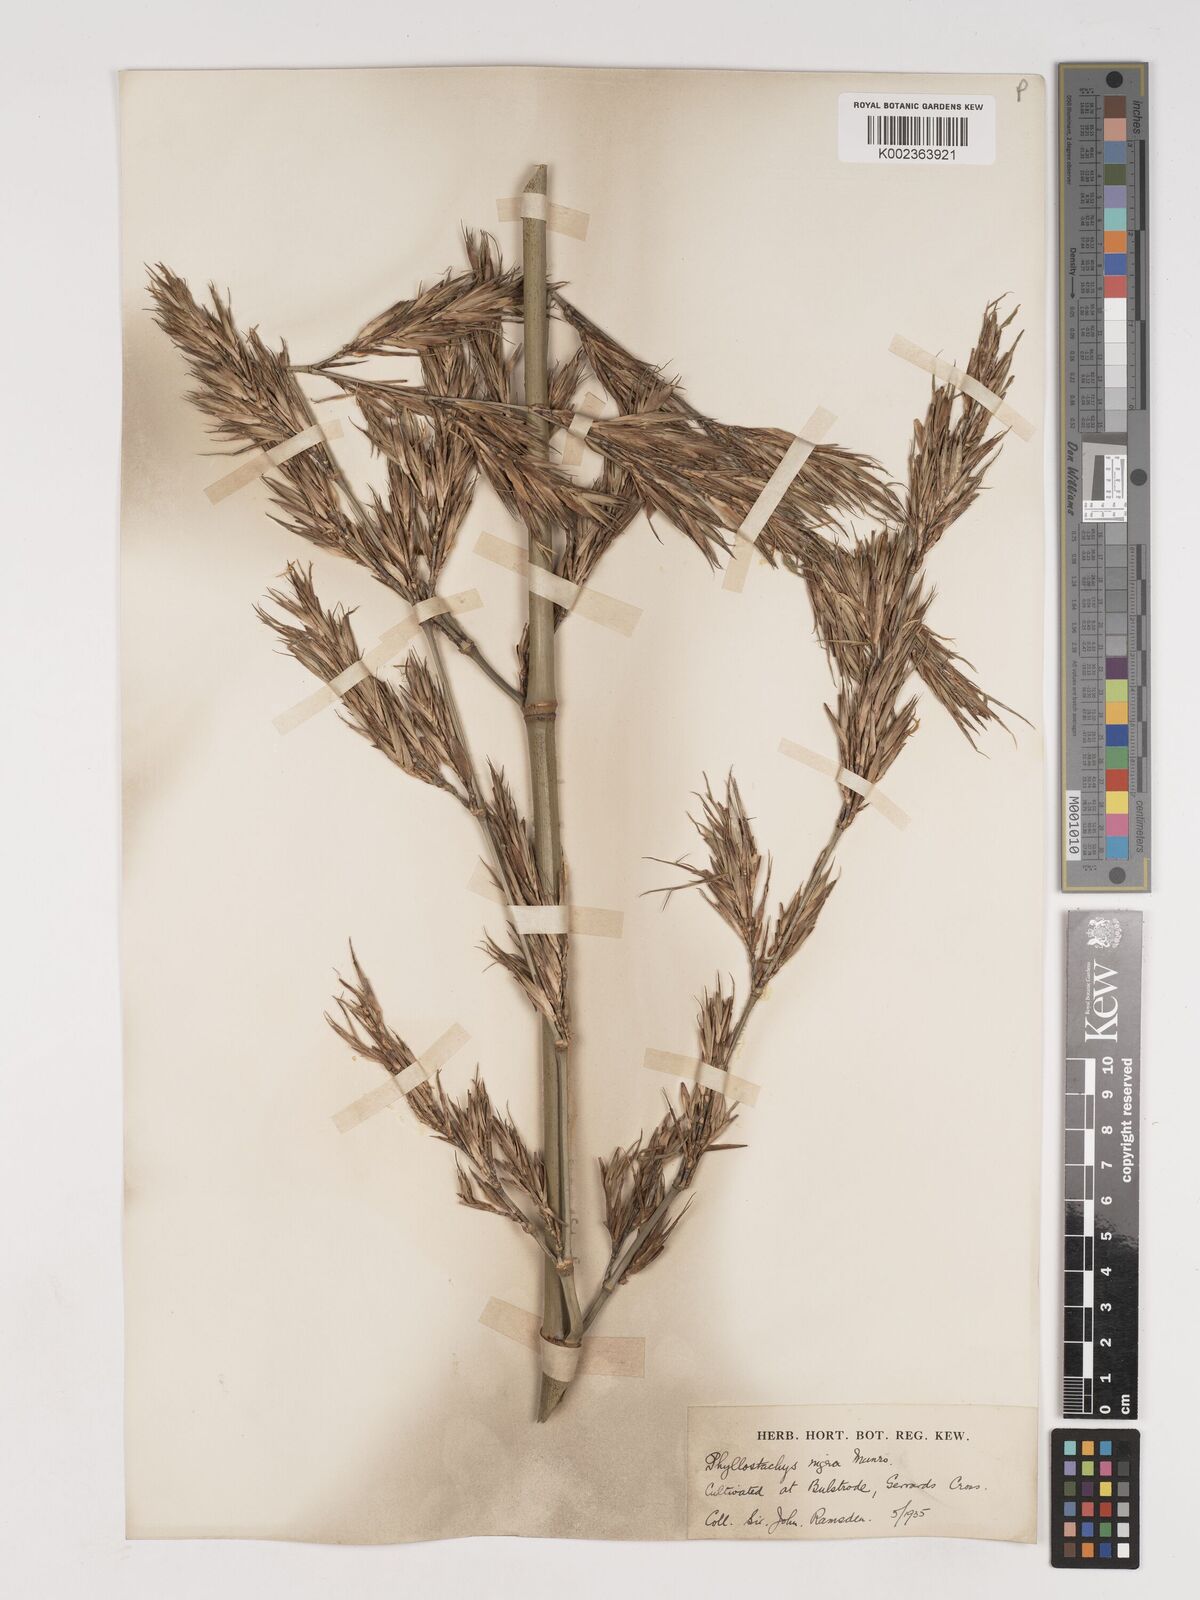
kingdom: Plantae
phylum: Tracheophyta
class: Liliopsida
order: Poales
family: Poaceae
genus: Phyllostachys
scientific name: Phyllostachys nigra
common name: Black bamboo
